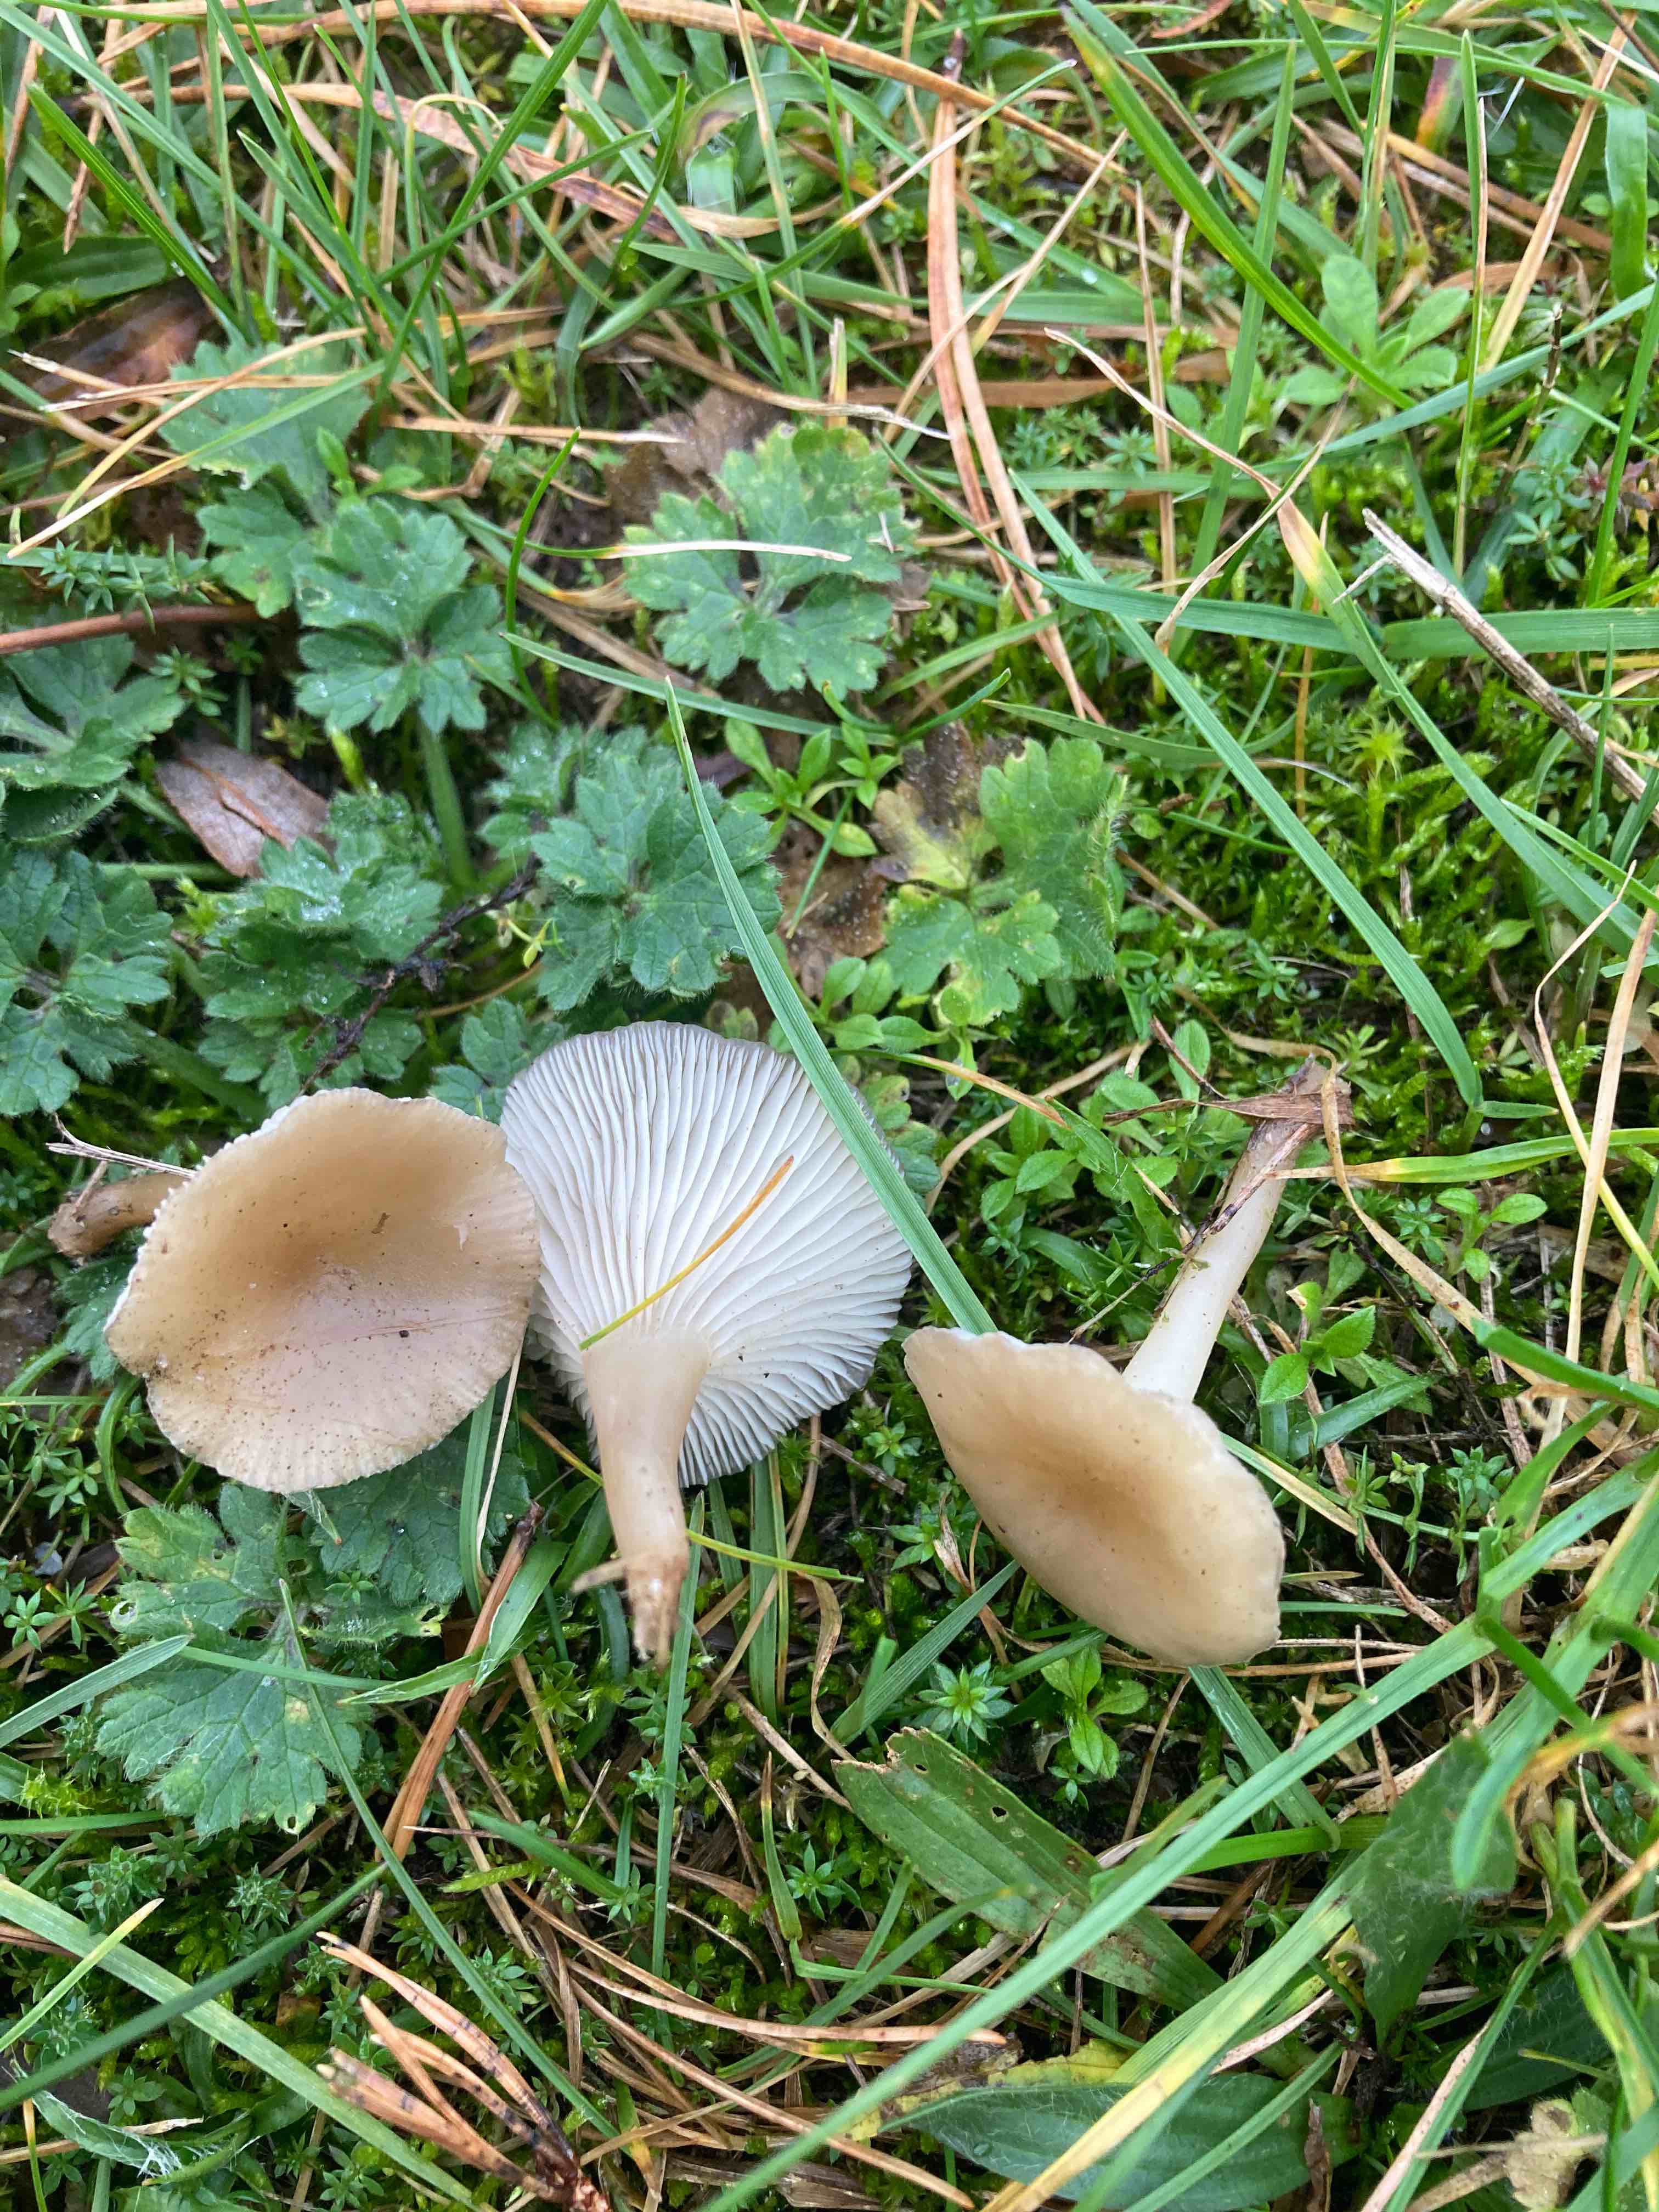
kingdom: Fungi
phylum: Basidiomycota
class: Agaricomycetes
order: Agaricales
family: Tricholomataceae
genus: Clitocybe
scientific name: Clitocybe
